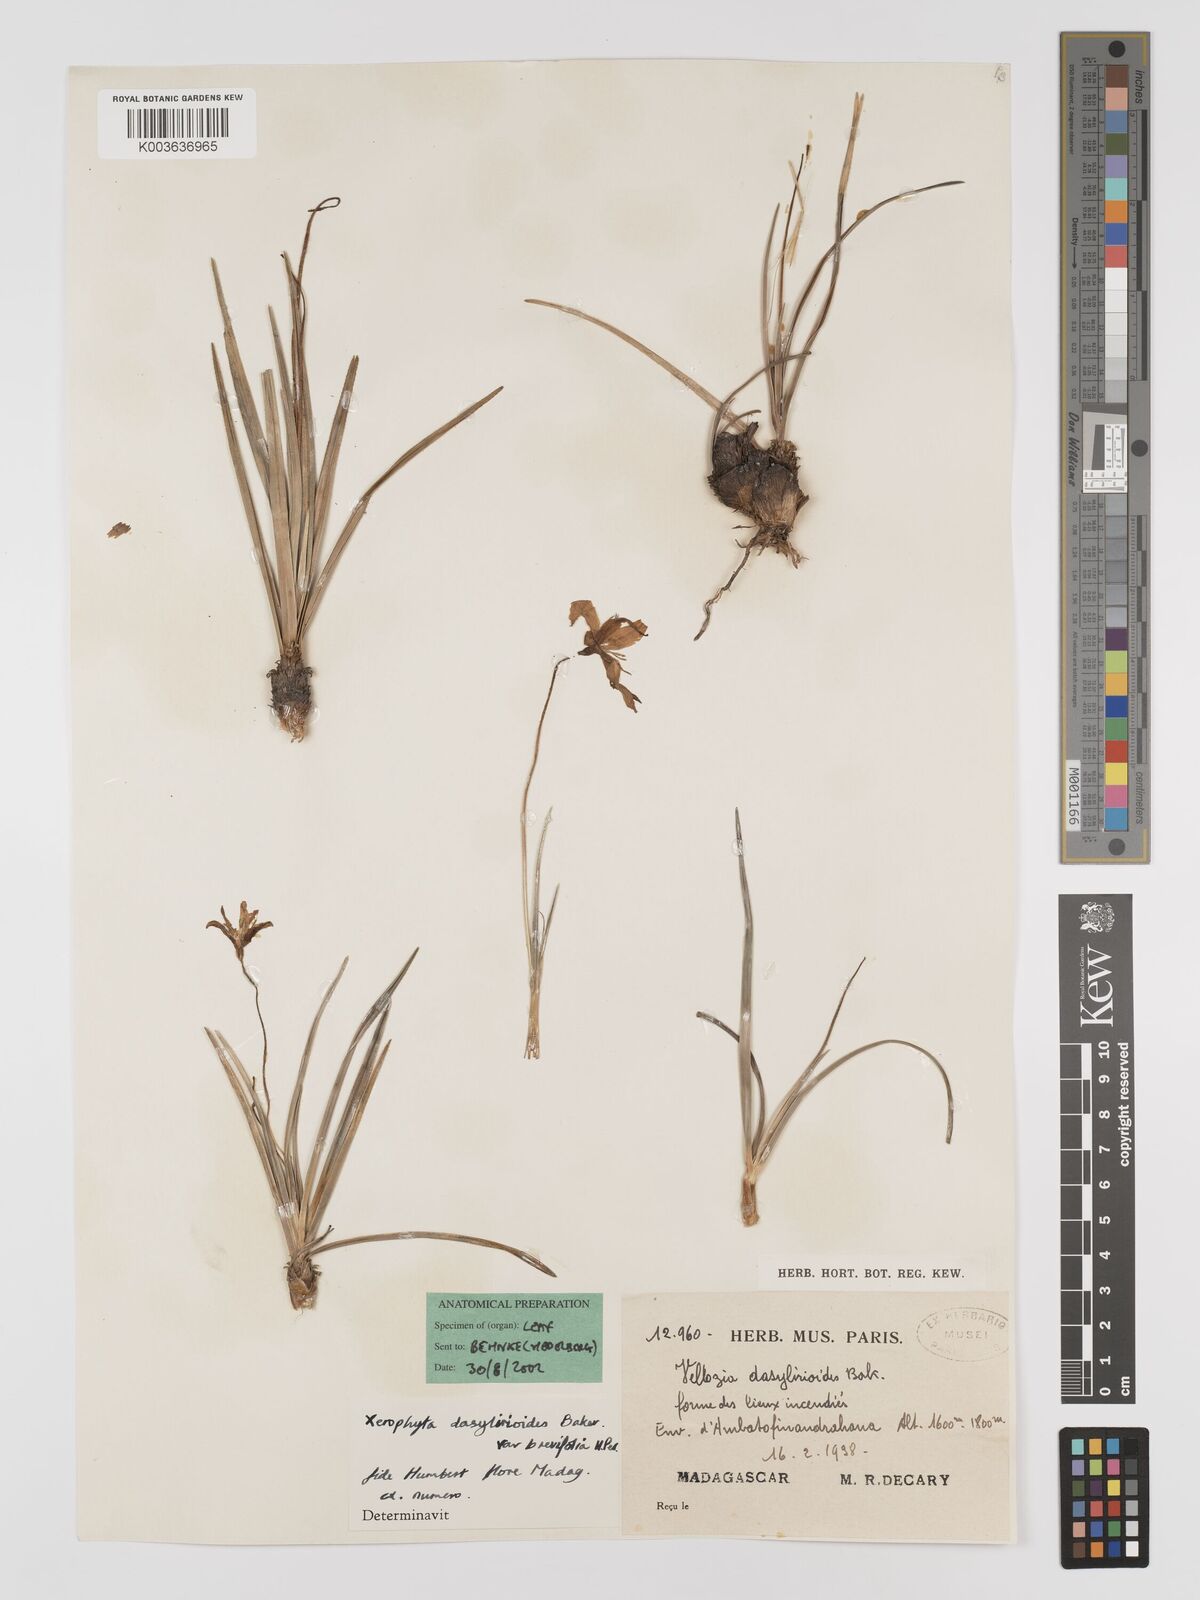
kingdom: Plantae
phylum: Tracheophyta
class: Liliopsida
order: Pandanales
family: Velloziaceae
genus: Xerophyta
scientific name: Xerophyta
